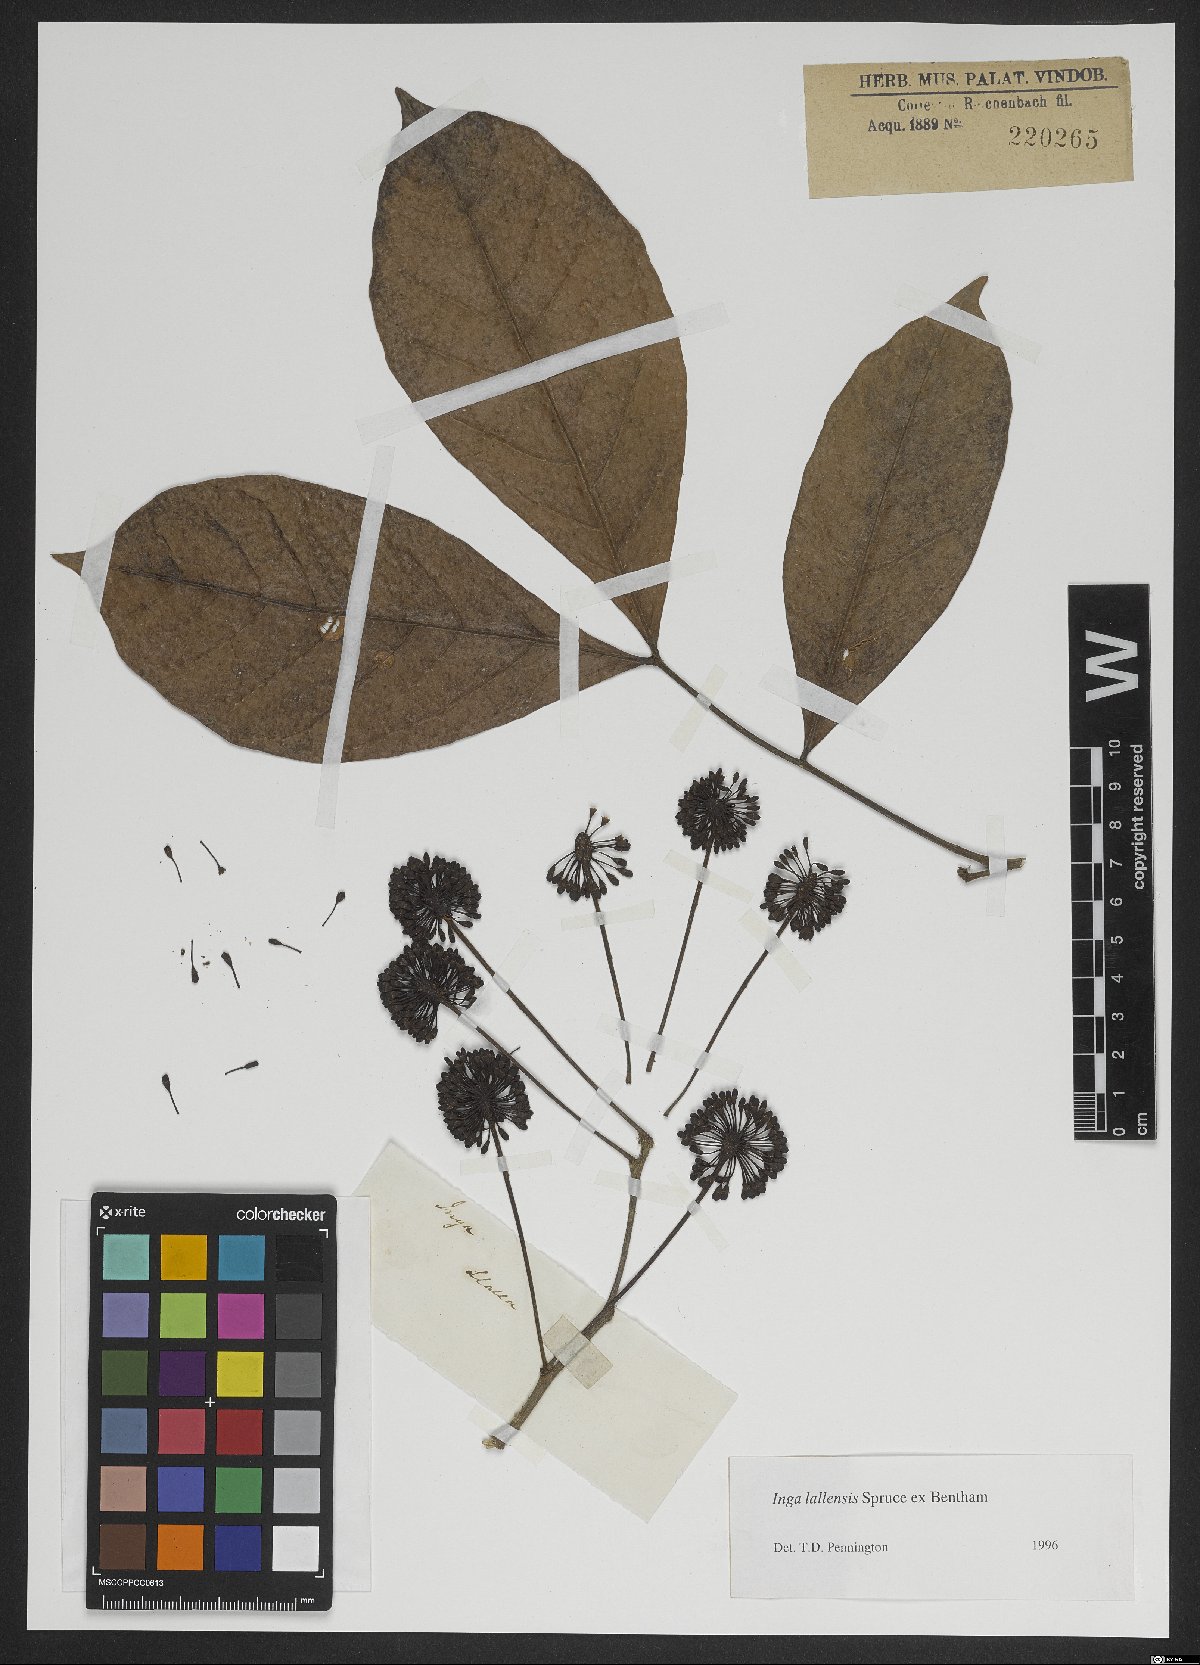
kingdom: Plantae
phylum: Tracheophyta
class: Magnoliopsida
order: Fabales
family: Fabaceae
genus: Inga
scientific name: Inga lallensis
